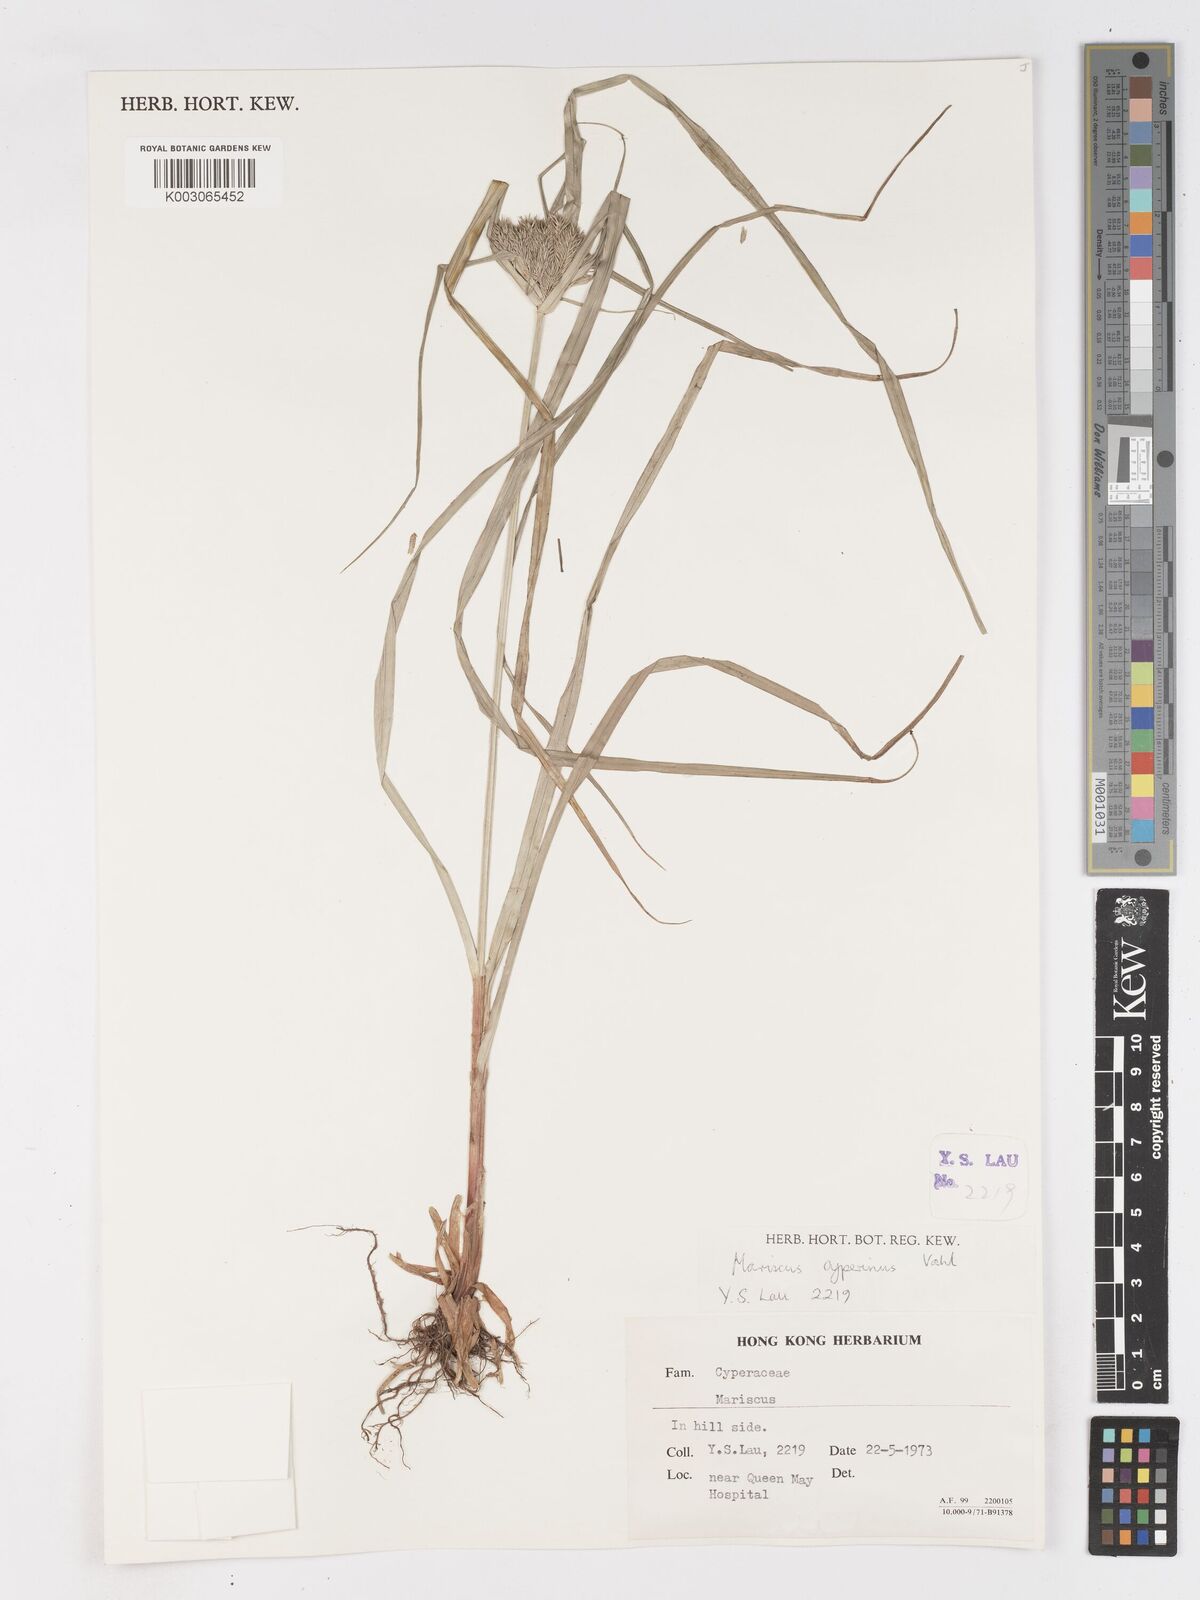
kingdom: Plantae
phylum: Tracheophyta
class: Liliopsida
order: Poales
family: Cyperaceae
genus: Cyperus
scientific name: Cyperus cyperinus
